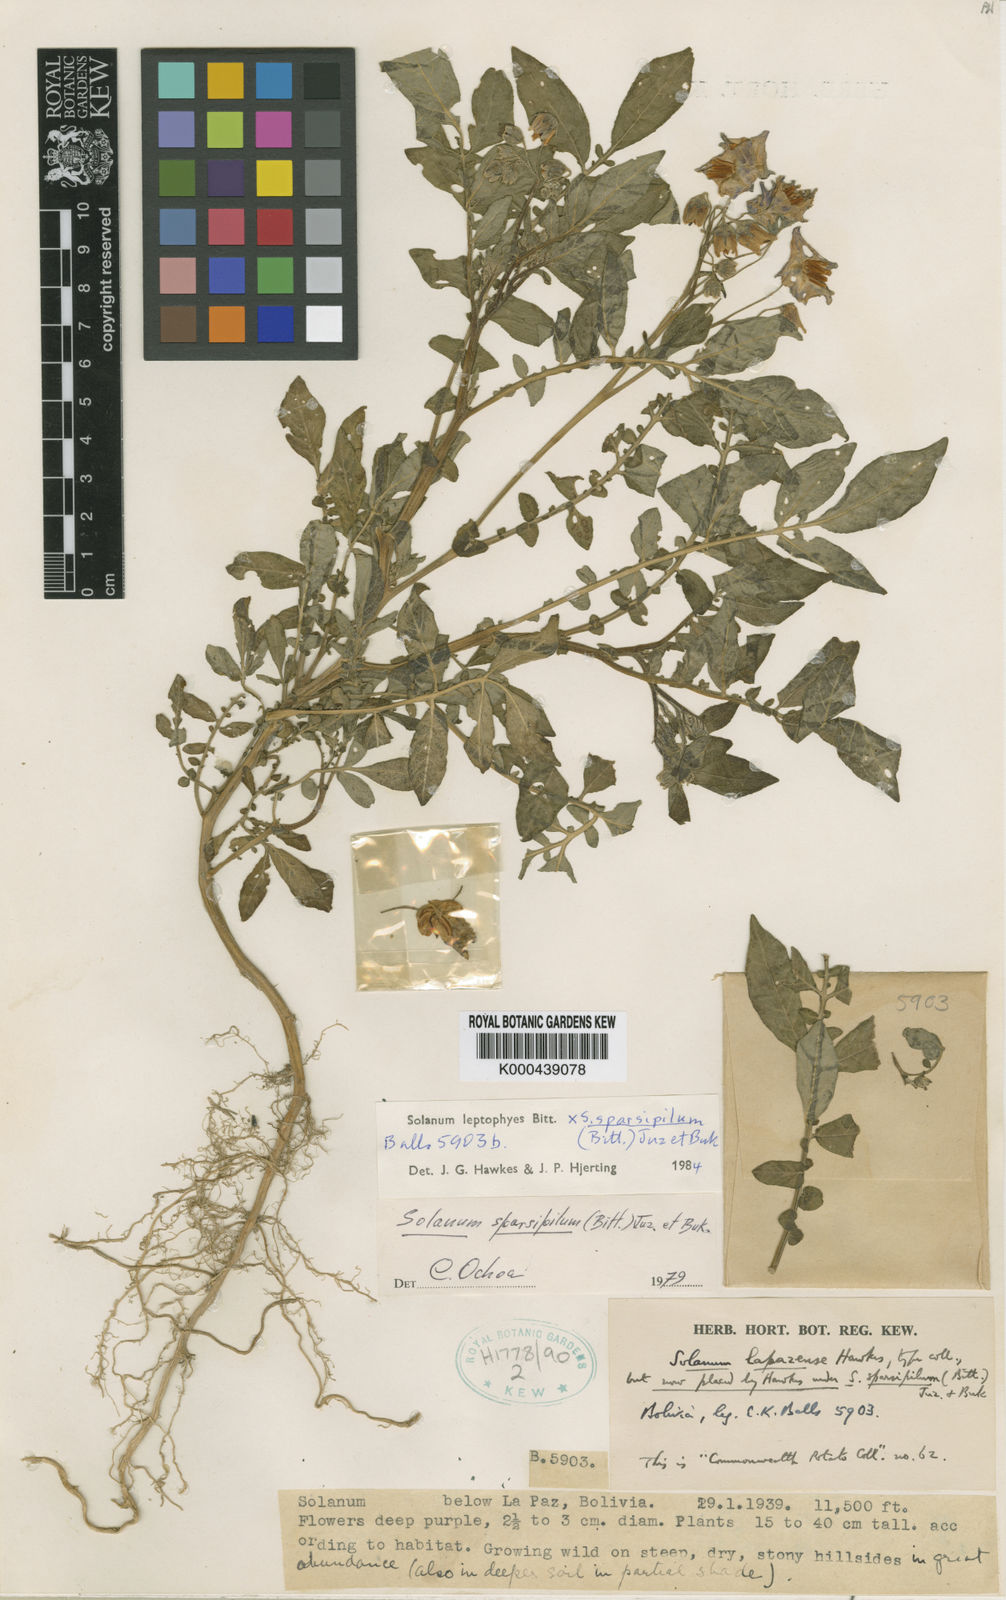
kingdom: Plantae
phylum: Tracheophyta
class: Magnoliopsida
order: Solanales
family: Solanaceae
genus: Solanum
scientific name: Solanum brevicaule
